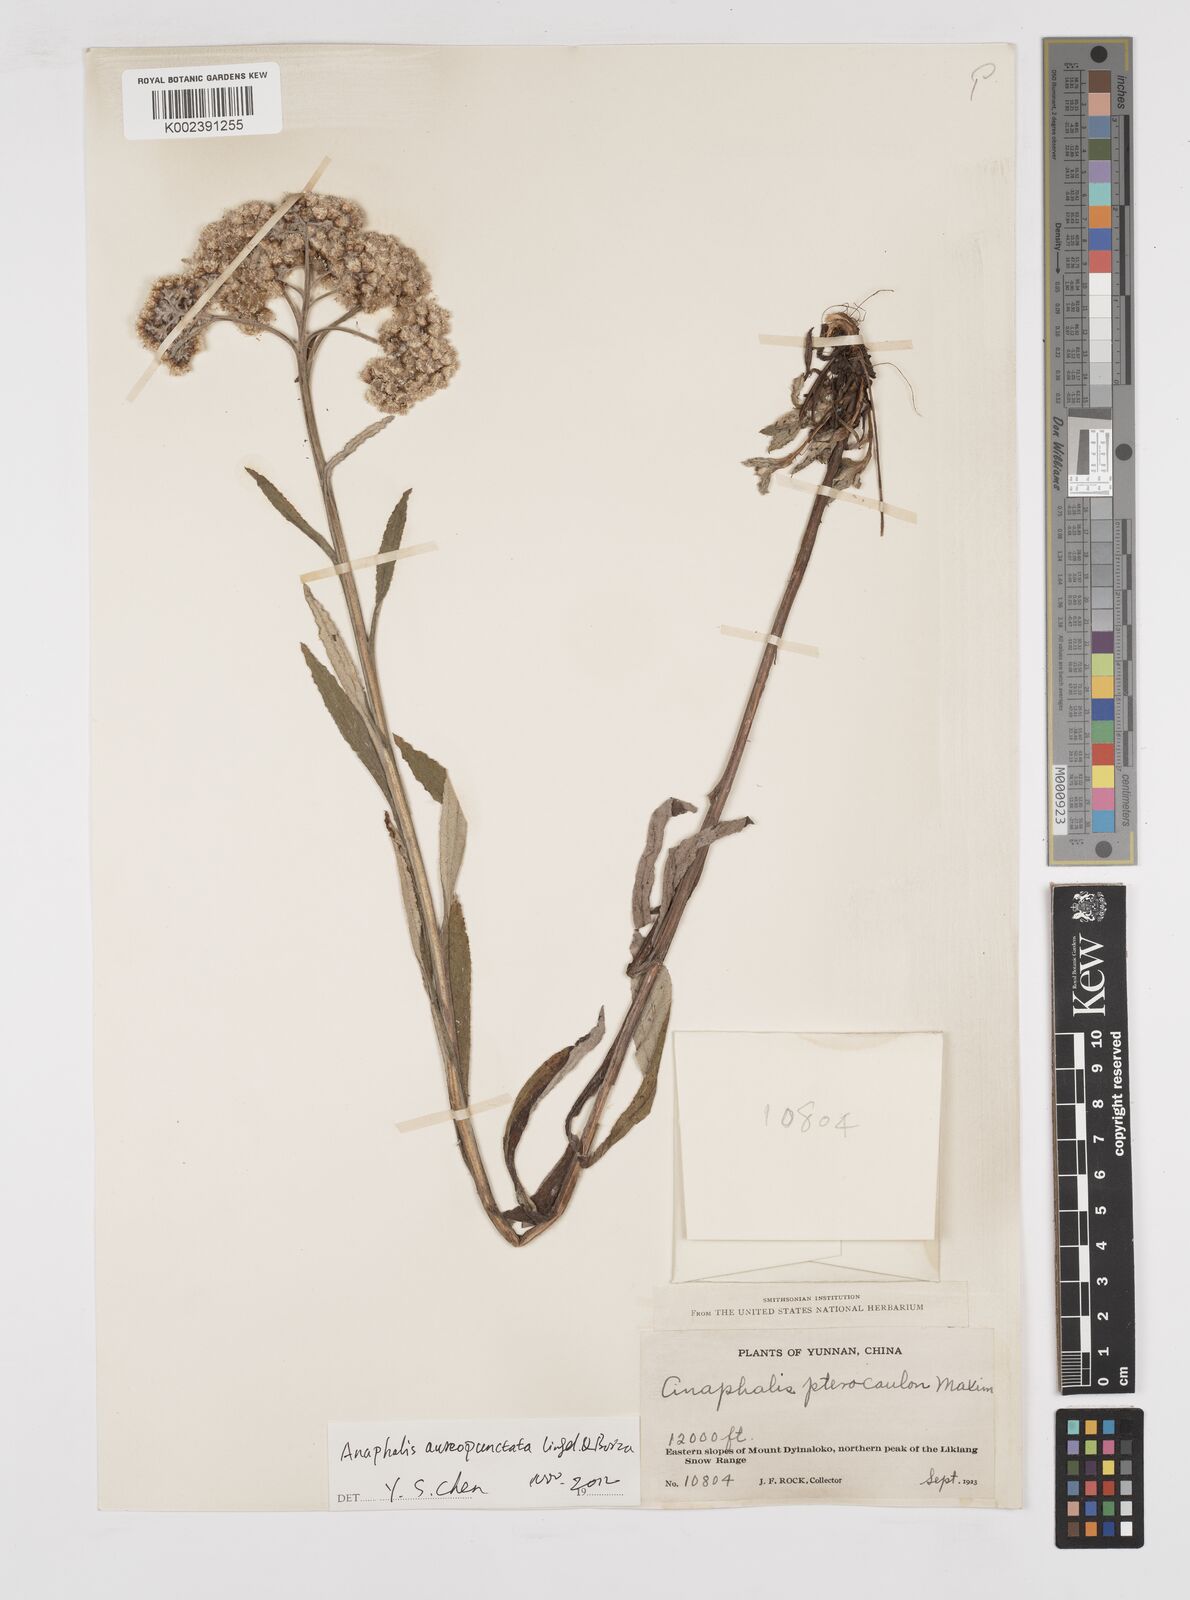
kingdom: Plantae
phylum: Tracheophyta
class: Magnoliopsida
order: Asterales
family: Asteraceae
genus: Anaphalis
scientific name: Anaphalis sinica
